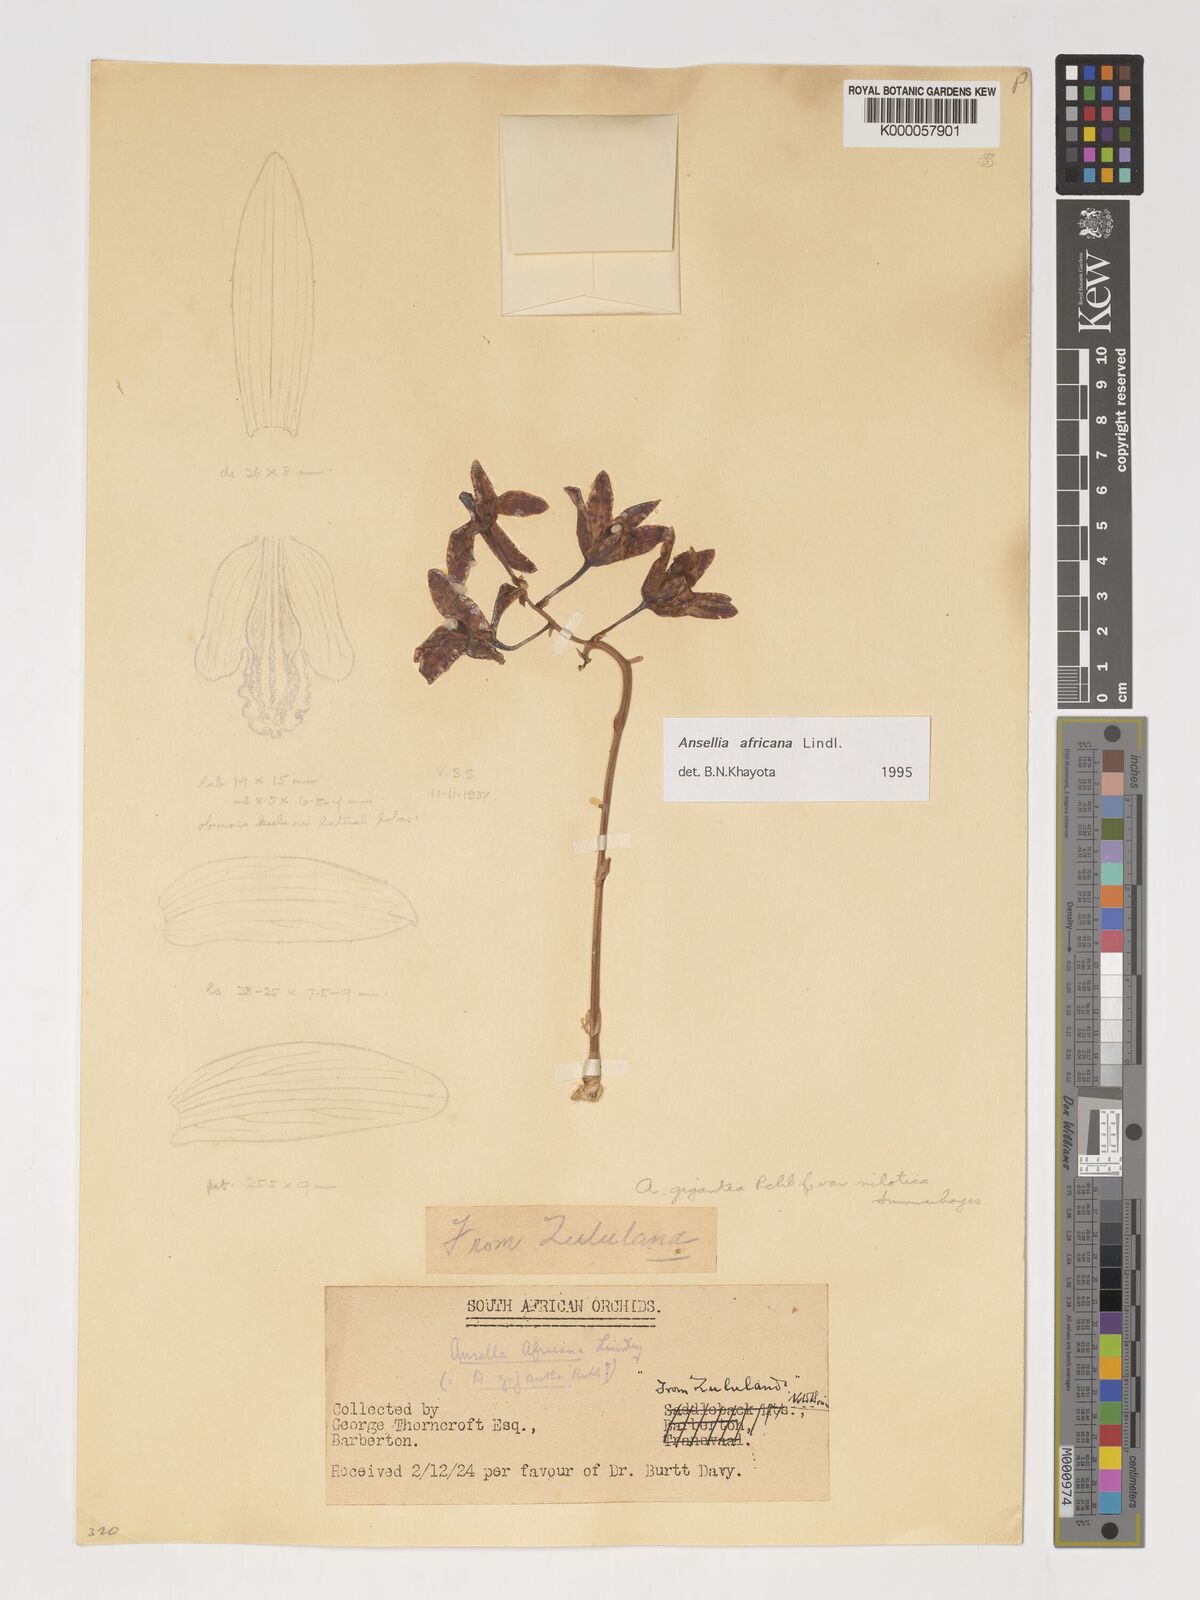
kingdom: Plantae
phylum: Tracheophyta
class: Liliopsida
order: Asparagales
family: Orchidaceae
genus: Ansellia
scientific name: Ansellia africana
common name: African ansellia
